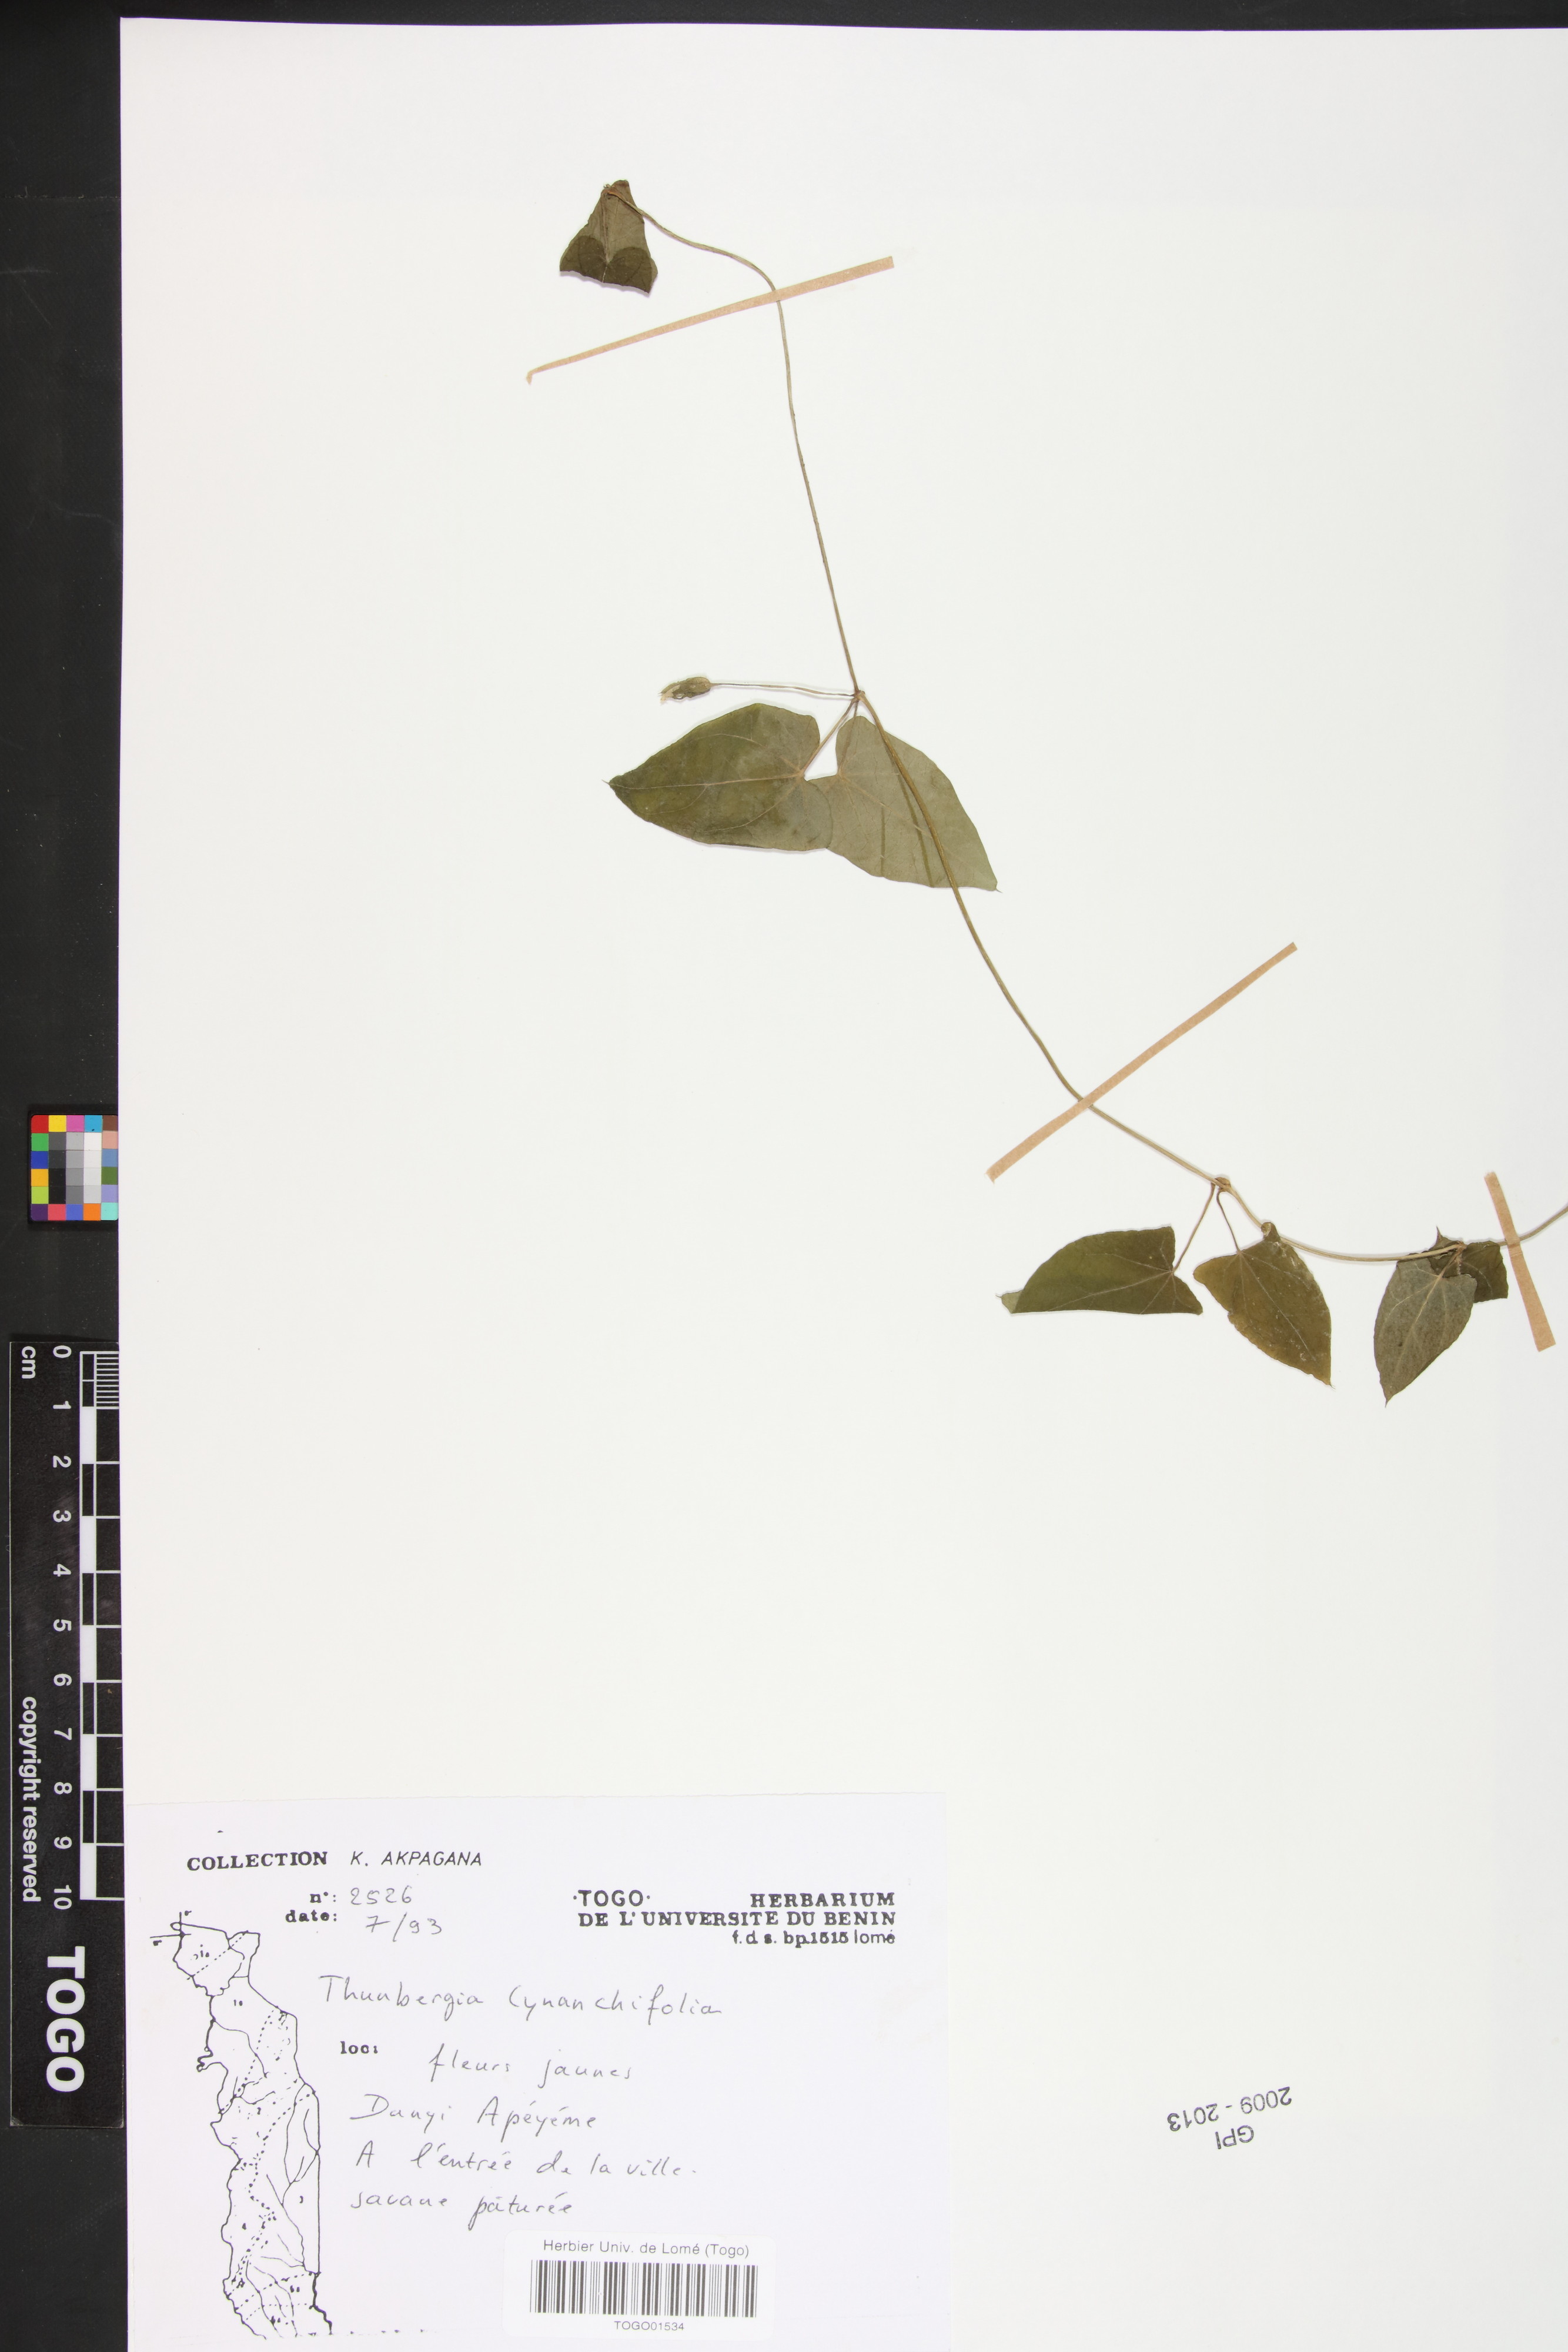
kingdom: Plantae
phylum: Tracheophyta
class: Magnoliopsida
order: Lamiales
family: Acanthaceae
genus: Thunbergia
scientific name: Thunbergia cynanchifolia
